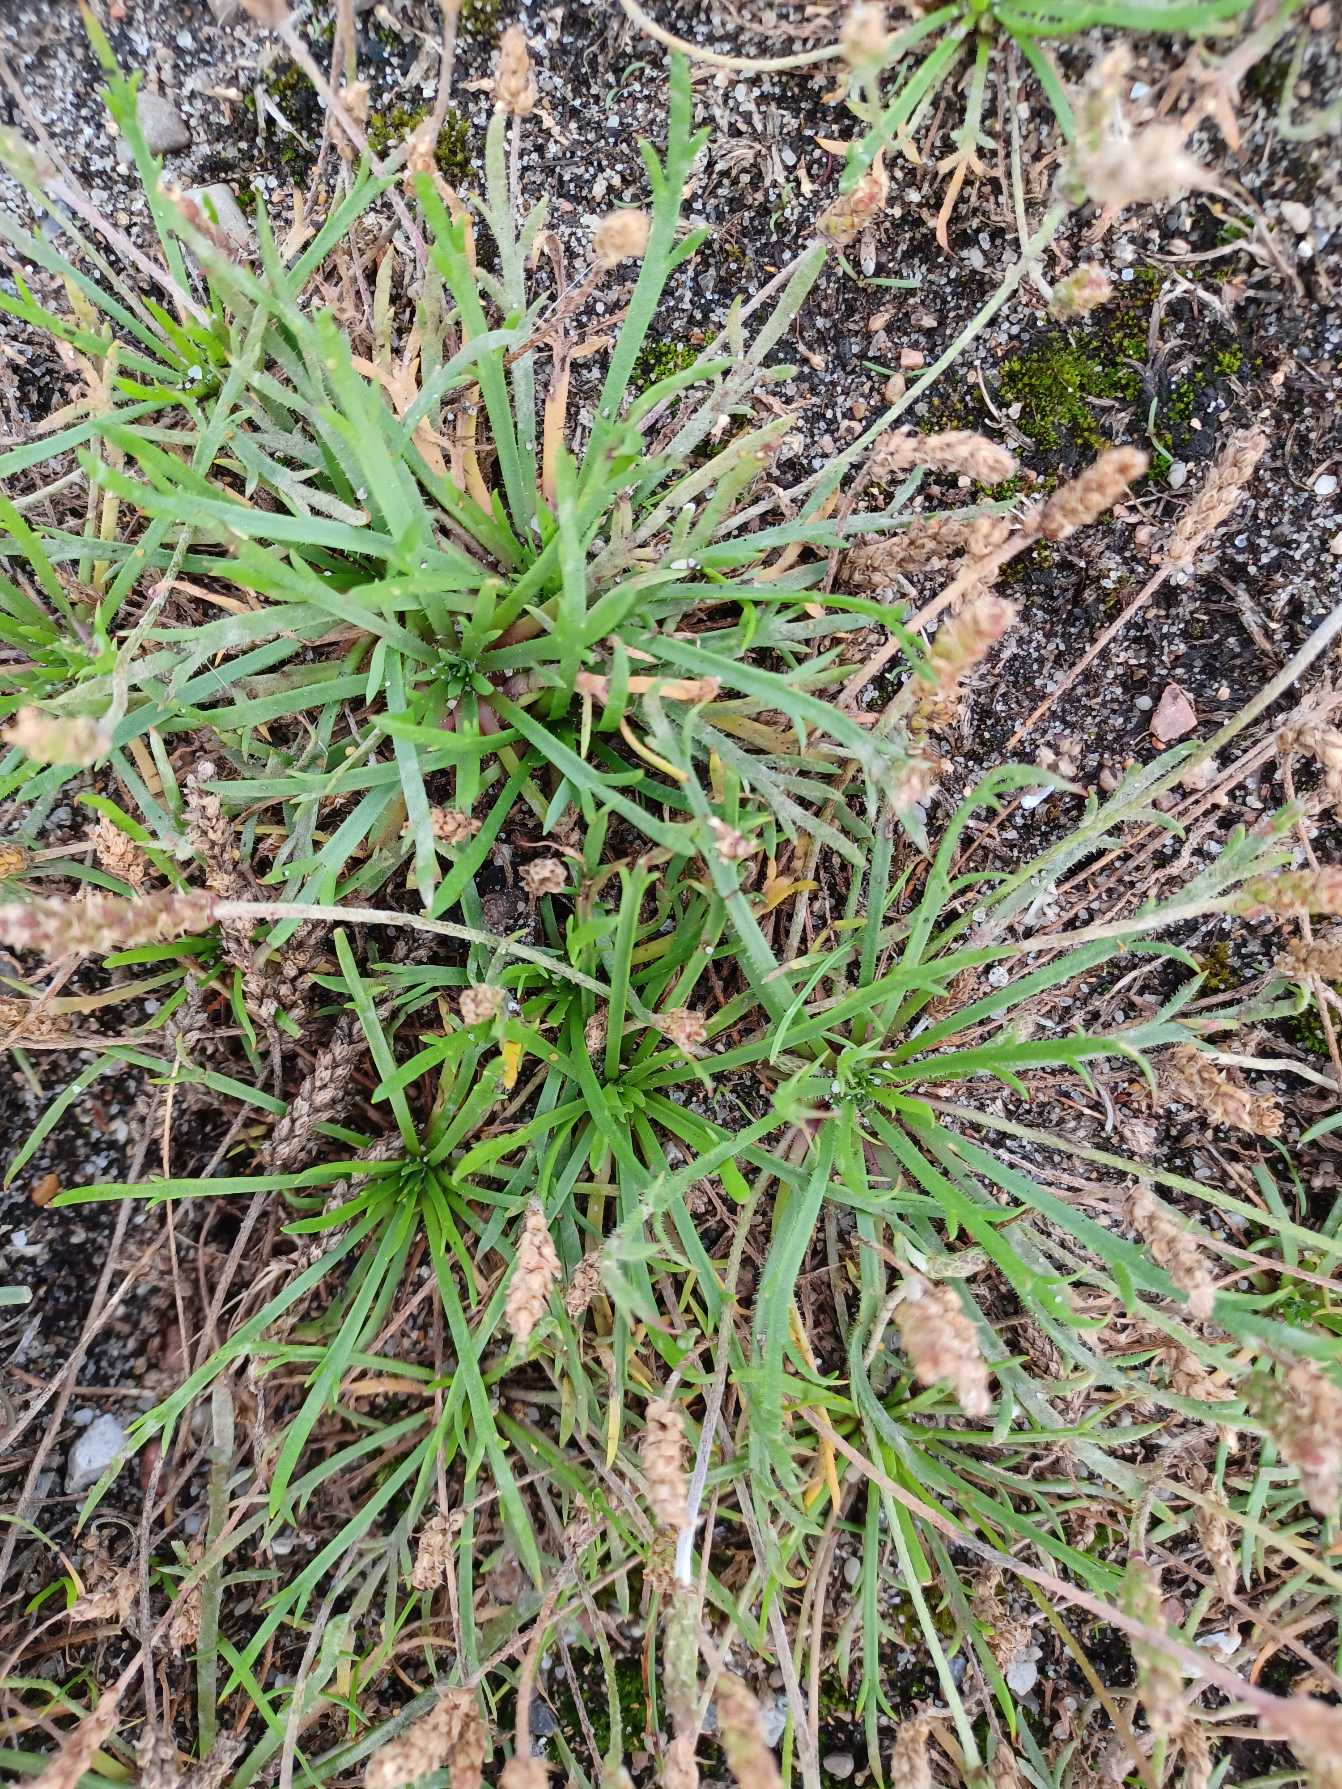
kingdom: Plantae
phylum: Tracheophyta
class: Magnoliopsida
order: Lamiales
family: Plantaginaceae
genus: Plantago
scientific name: Plantago coronopus
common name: Fliget vejbred
